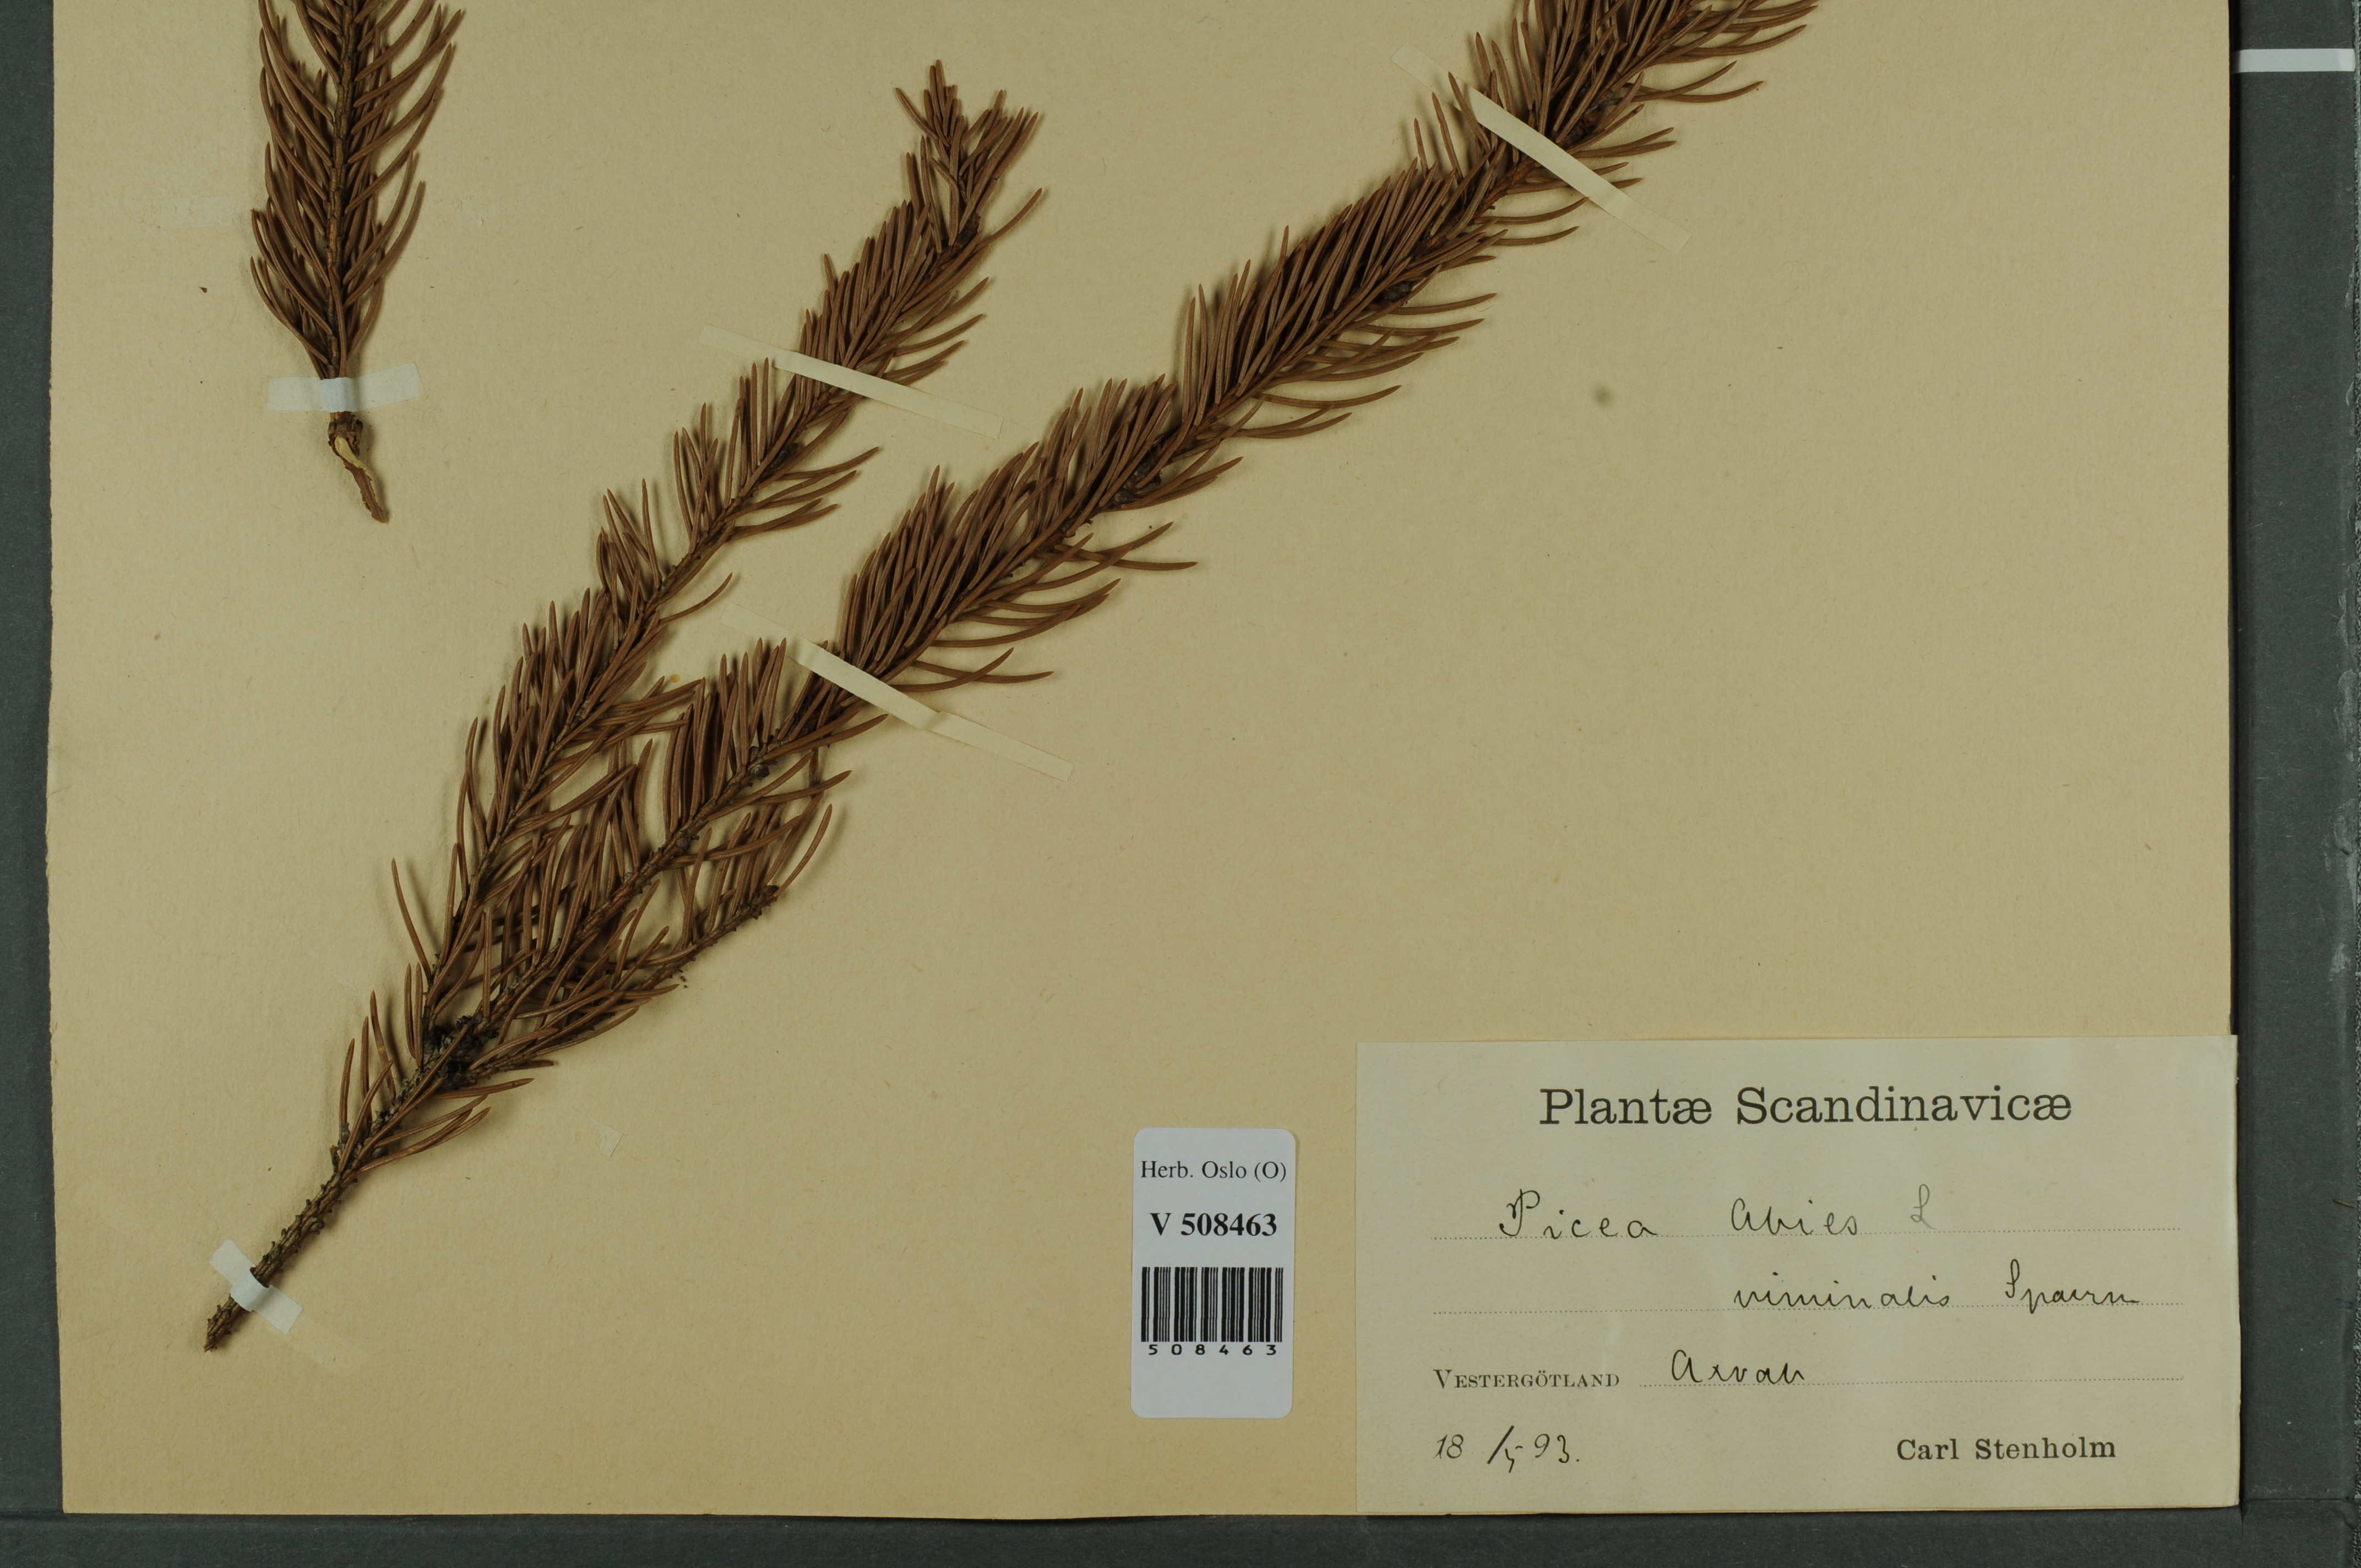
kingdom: Plantae
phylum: Tracheophyta
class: Pinopsida
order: Pinales
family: Pinaceae
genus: Picea
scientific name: Picea abies
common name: Norway spruce
